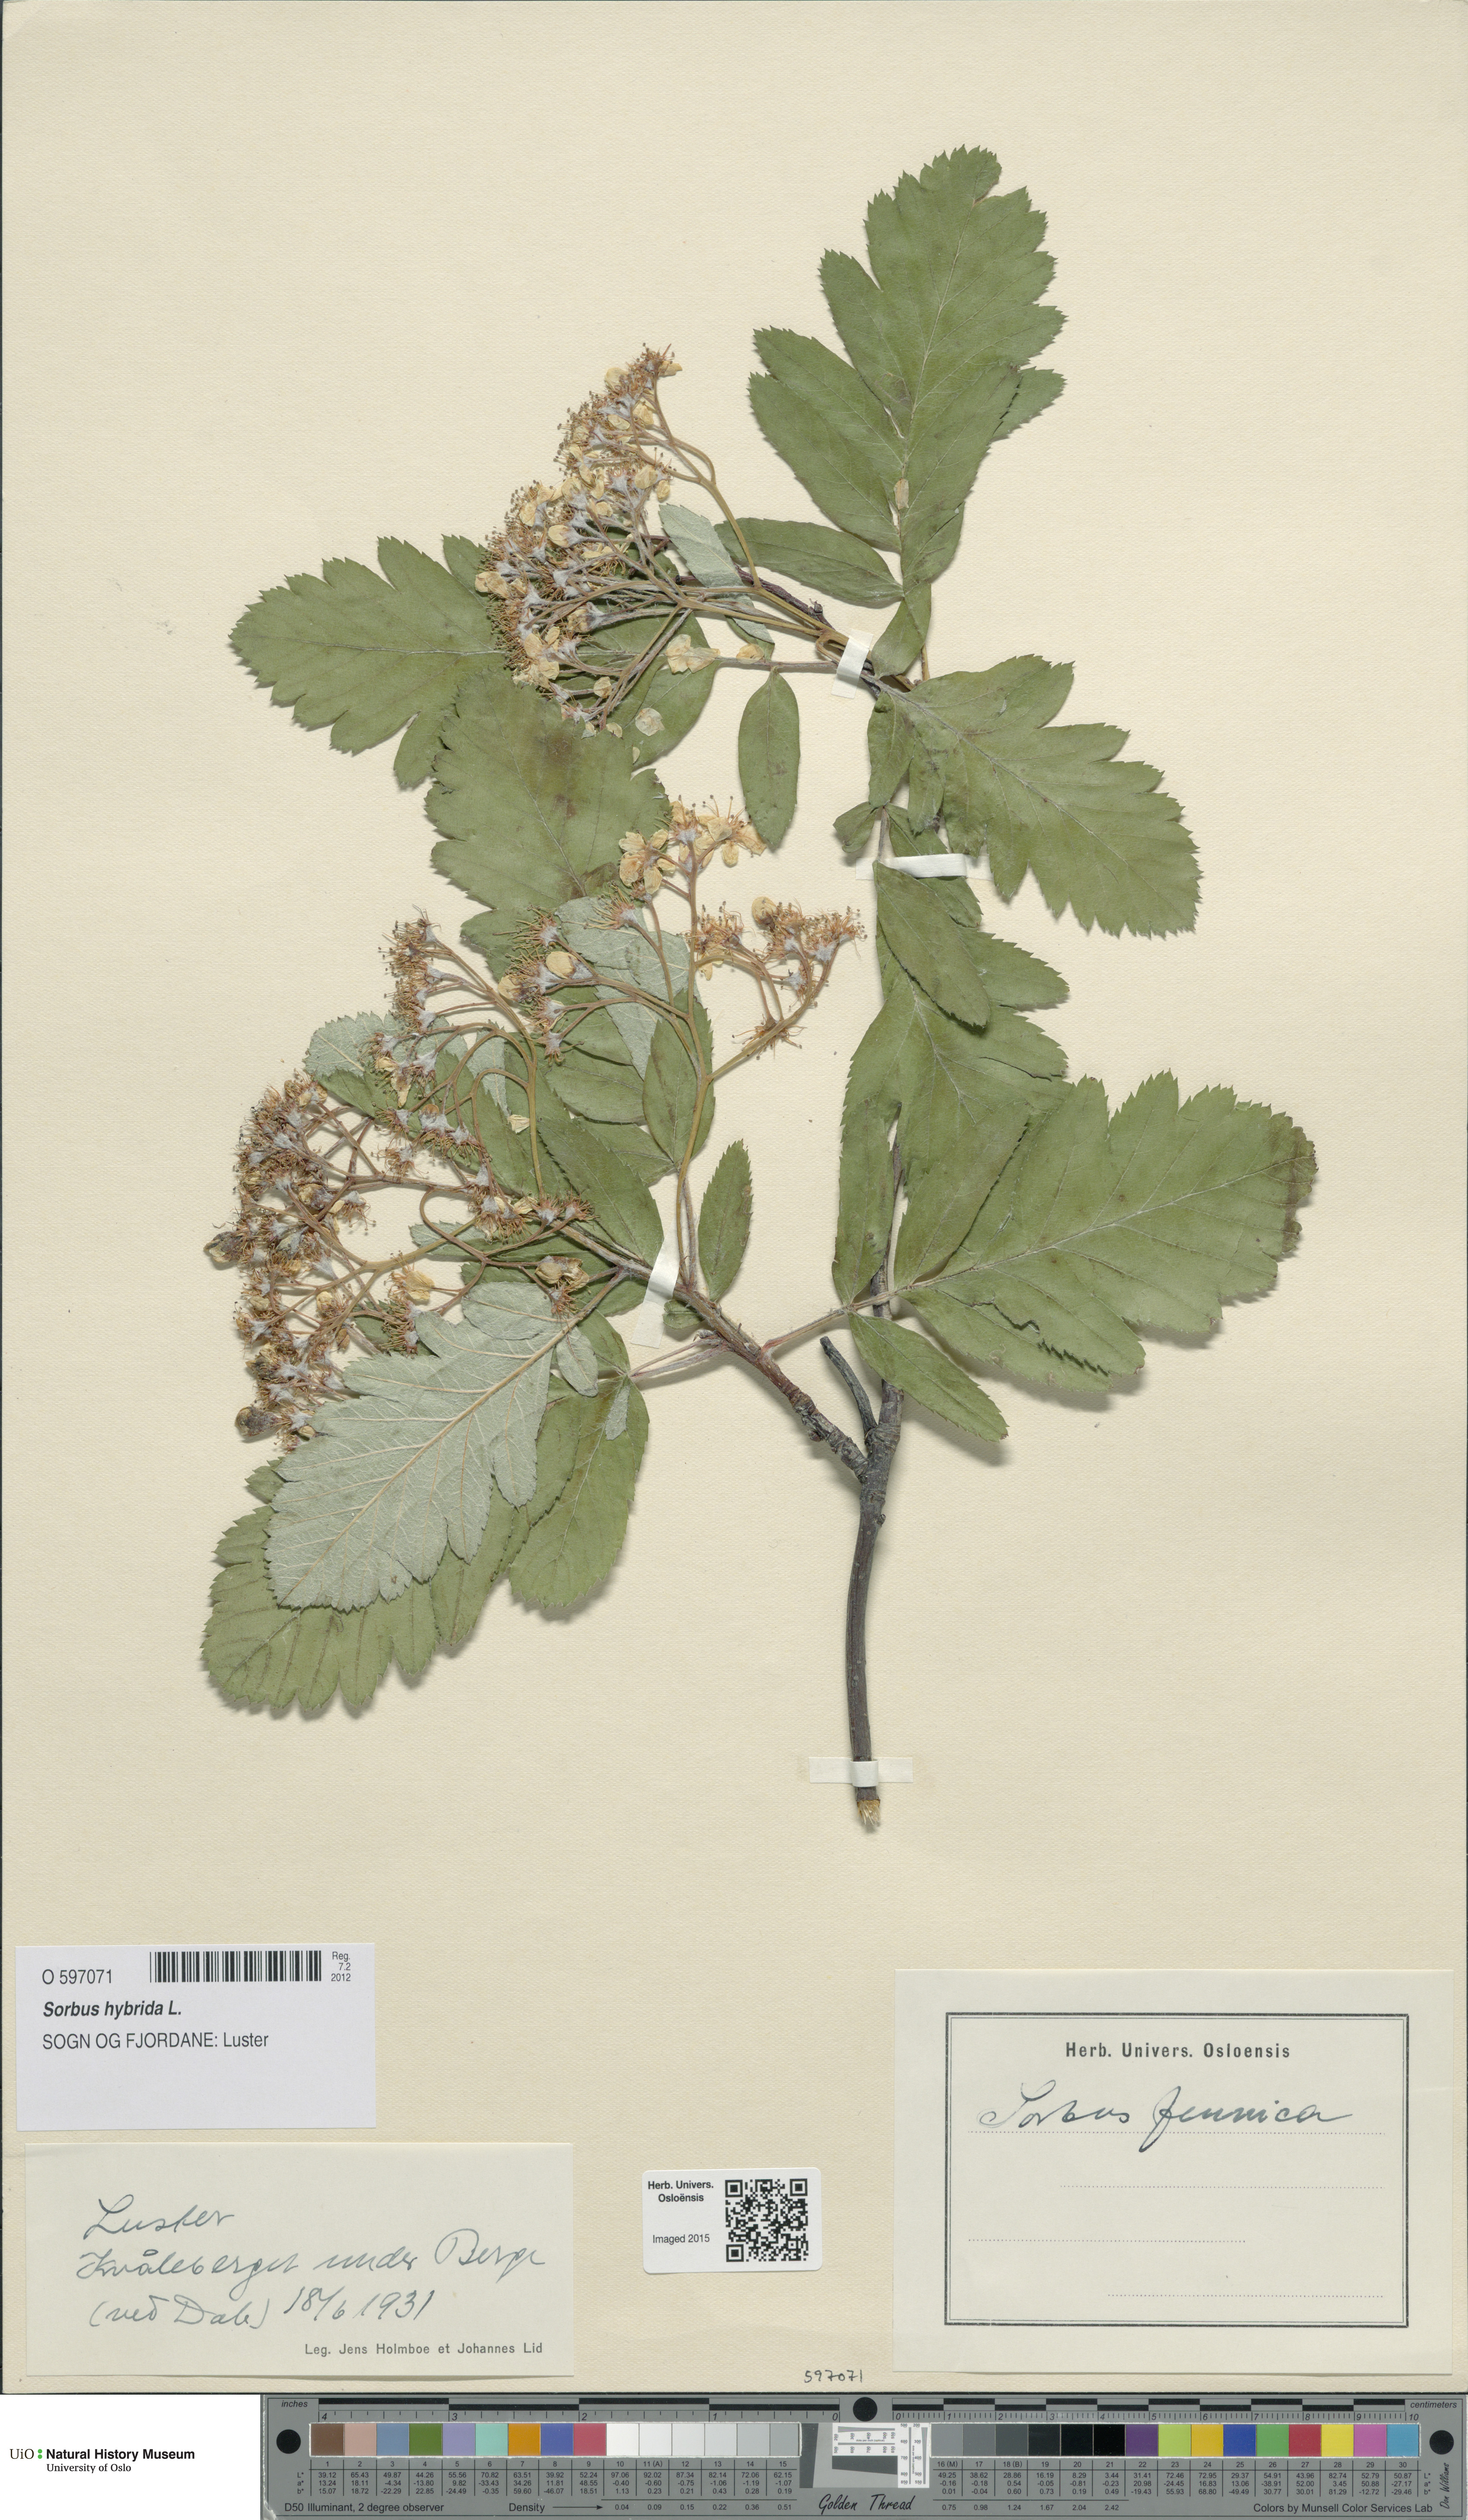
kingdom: Plantae
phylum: Tracheophyta
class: Magnoliopsida
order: Rosales
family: Rosaceae
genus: Hedlundia
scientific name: Hedlundia hybrida
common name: Swedish service-tree
